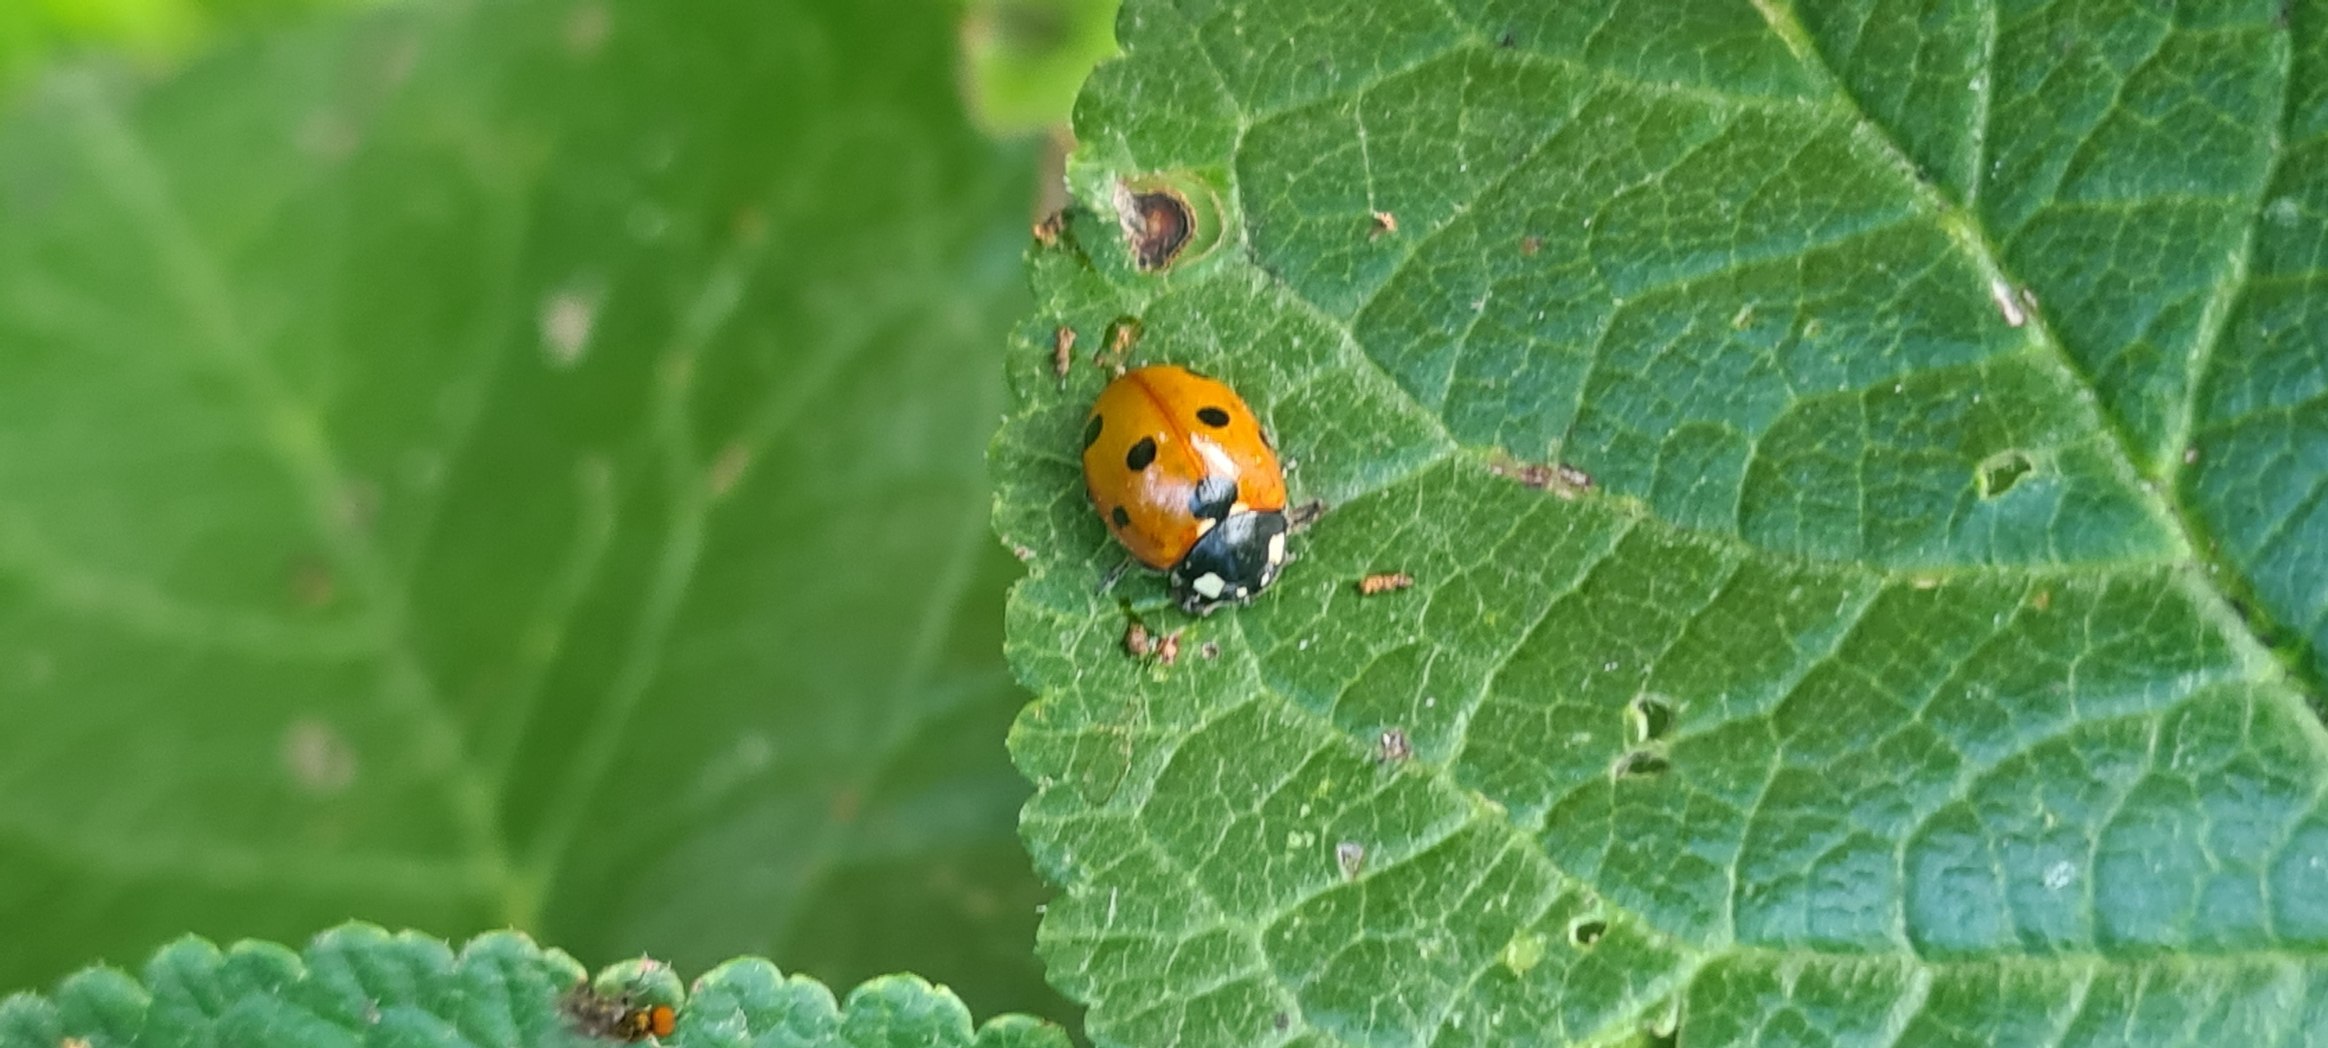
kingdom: Animalia
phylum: Arthropoda
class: Insecta
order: Coleoptera
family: Coccinellidae
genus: Coccinella
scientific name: Coccinella septempunctata
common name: Syvplettet mariehøne
